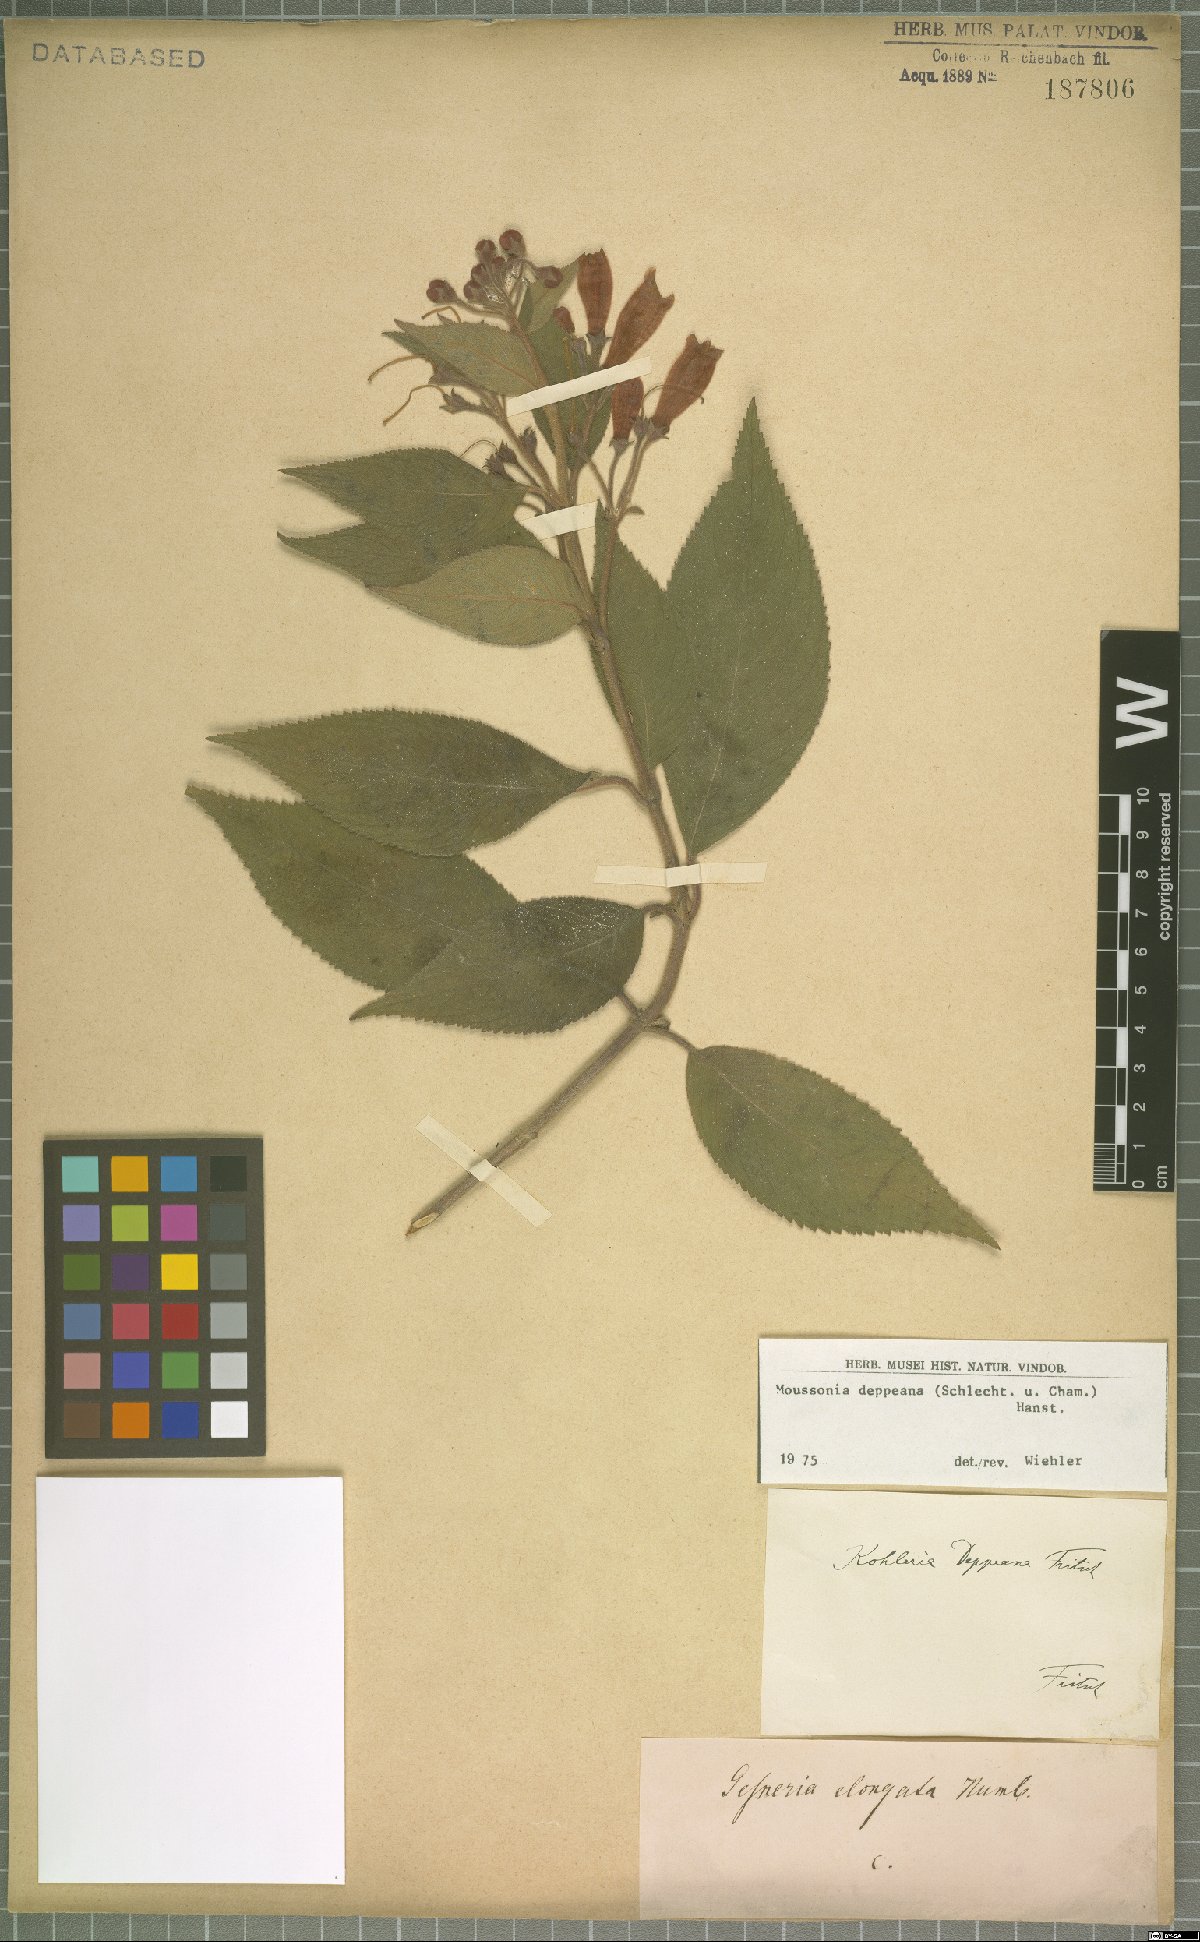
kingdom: Plantae
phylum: Tracheophyta
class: Magnoliopsida
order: Lamiales
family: Gesneriaceae
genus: Moussonia
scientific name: Moussonia deppeana
